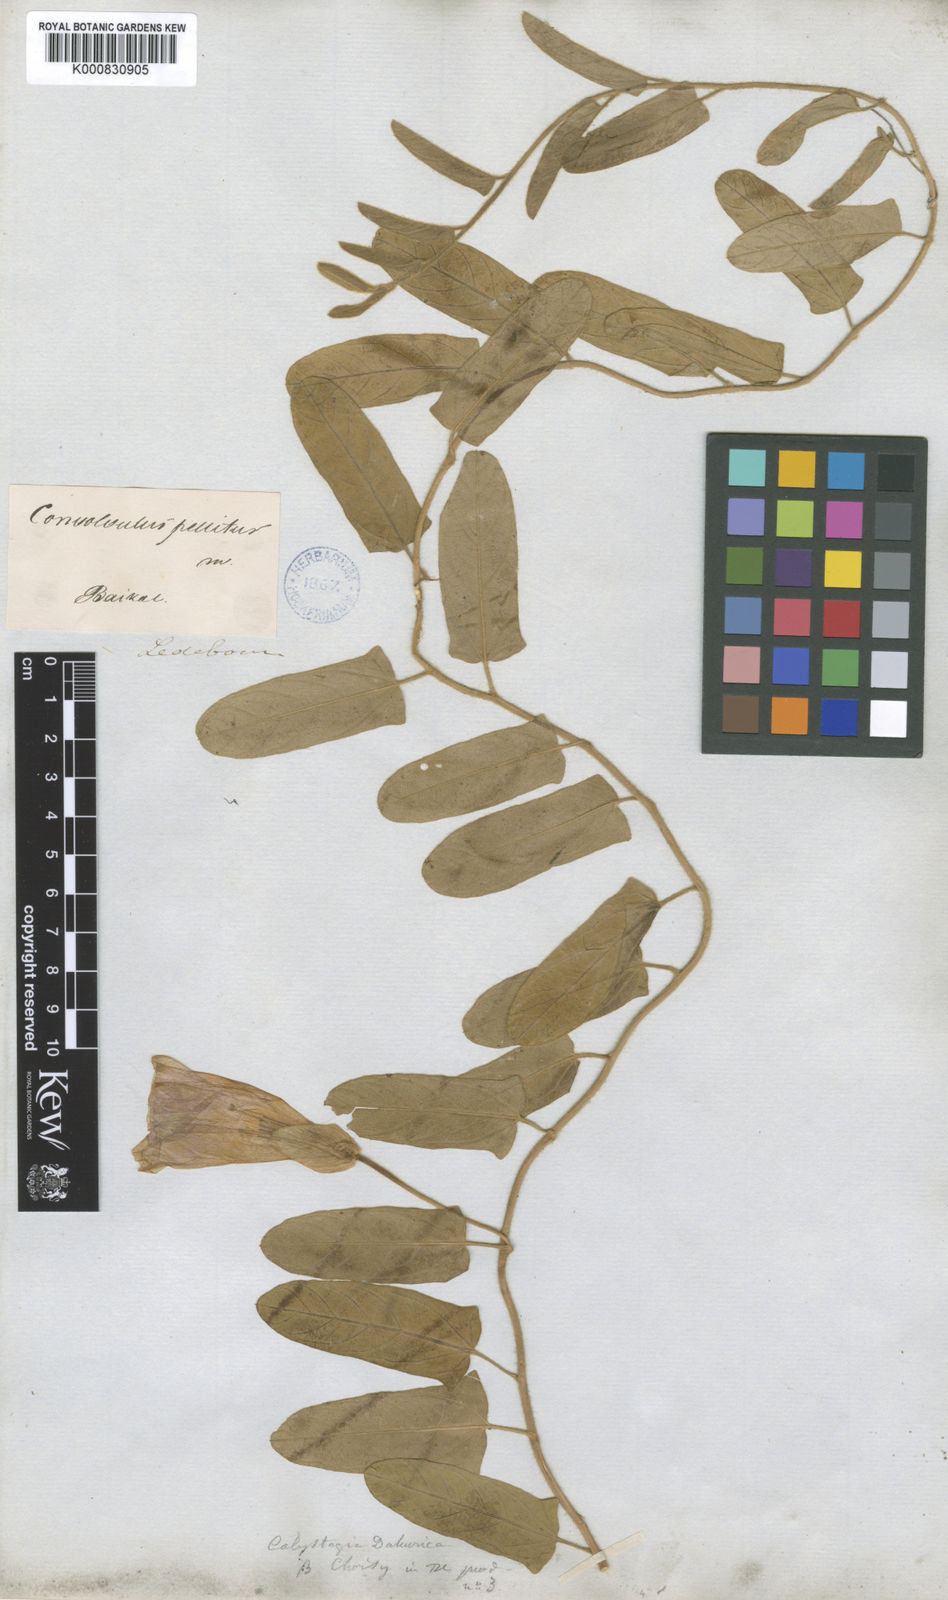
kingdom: Plantae
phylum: Tracheophyta
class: Magnoliopsida
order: Solanales
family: Convolvulaceae
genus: Calystegia
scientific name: Calystegia pellita
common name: Hairy bindweed
